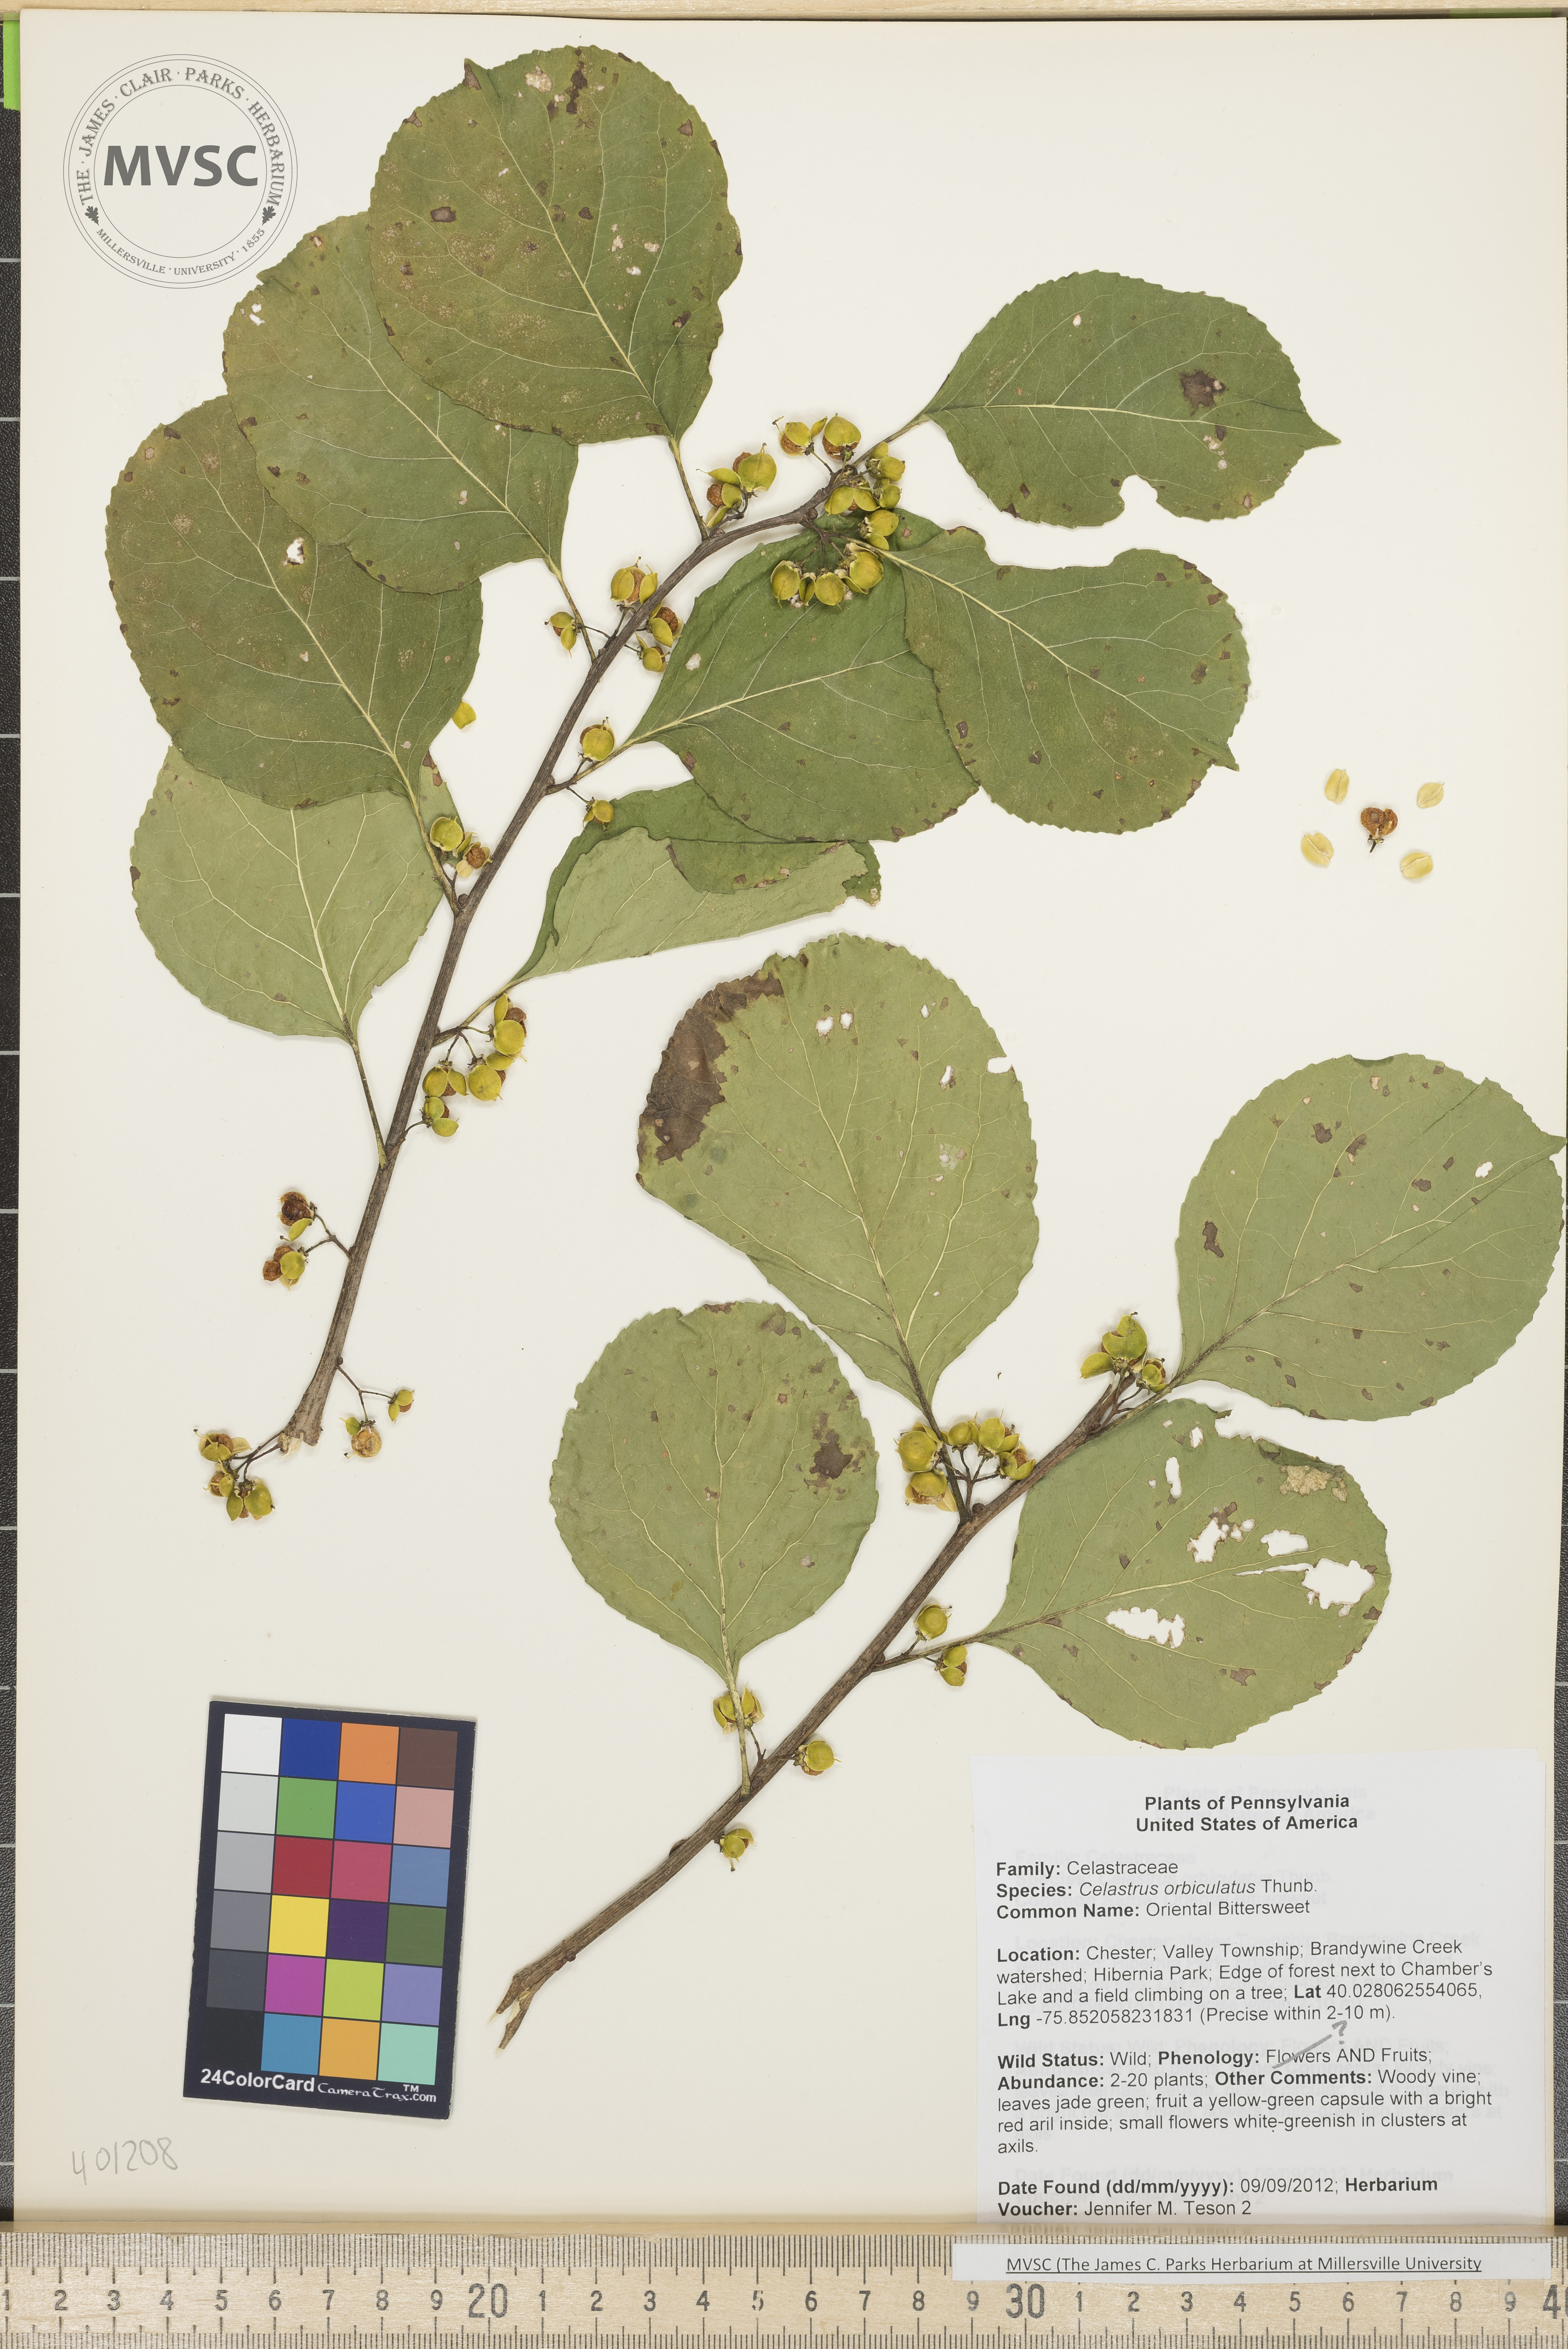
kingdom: Plantae
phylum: Tracheophyta
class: Magnoliopsida
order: Celastrales
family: Celastraceae
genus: Celastrus
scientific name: Celastrus orbiculatus
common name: Oriental Bittersweet
